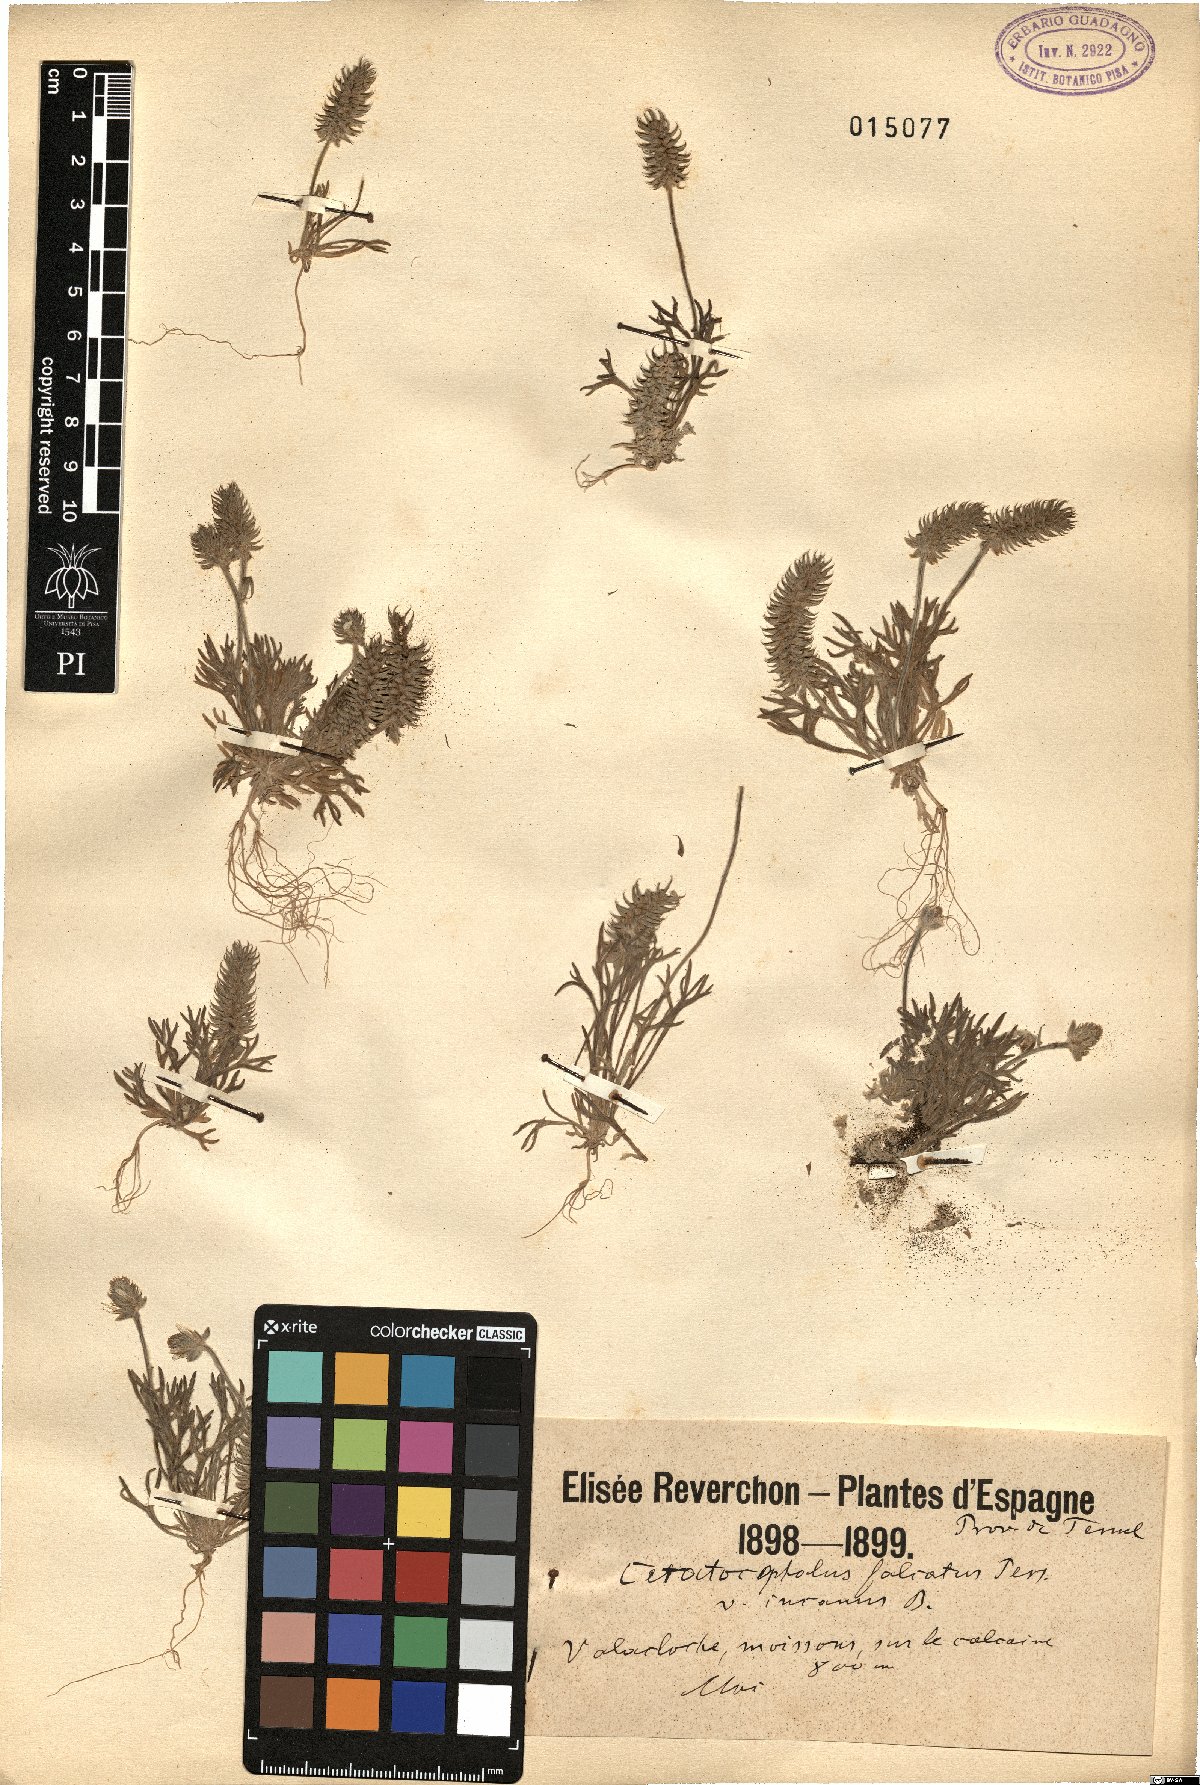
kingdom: Plantae
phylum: Tracheophyta
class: Magnoliopsida
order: Ranunculales
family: Ranunculaceae
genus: Ceratocephala
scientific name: Ceratocephala falcata
